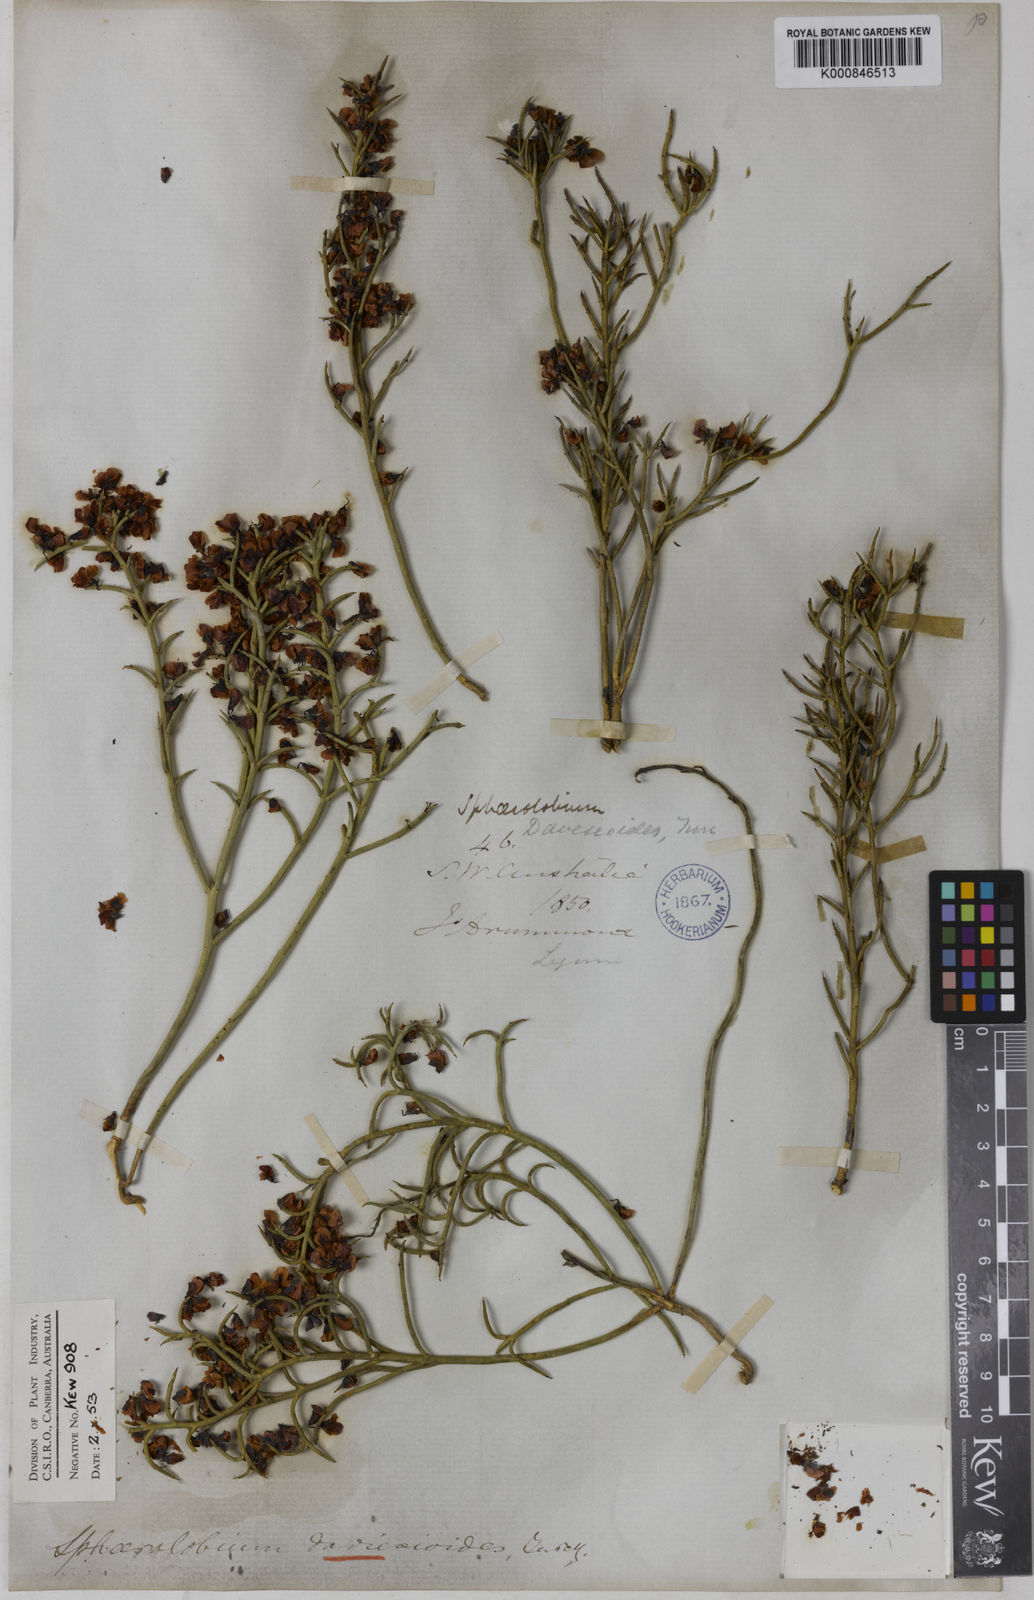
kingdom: Plantae
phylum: Tracheophyta
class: Magnoliopsida
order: Fabales
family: Fabaceae
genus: Sphaerolobium
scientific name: Sphaerolobium daviesioides
